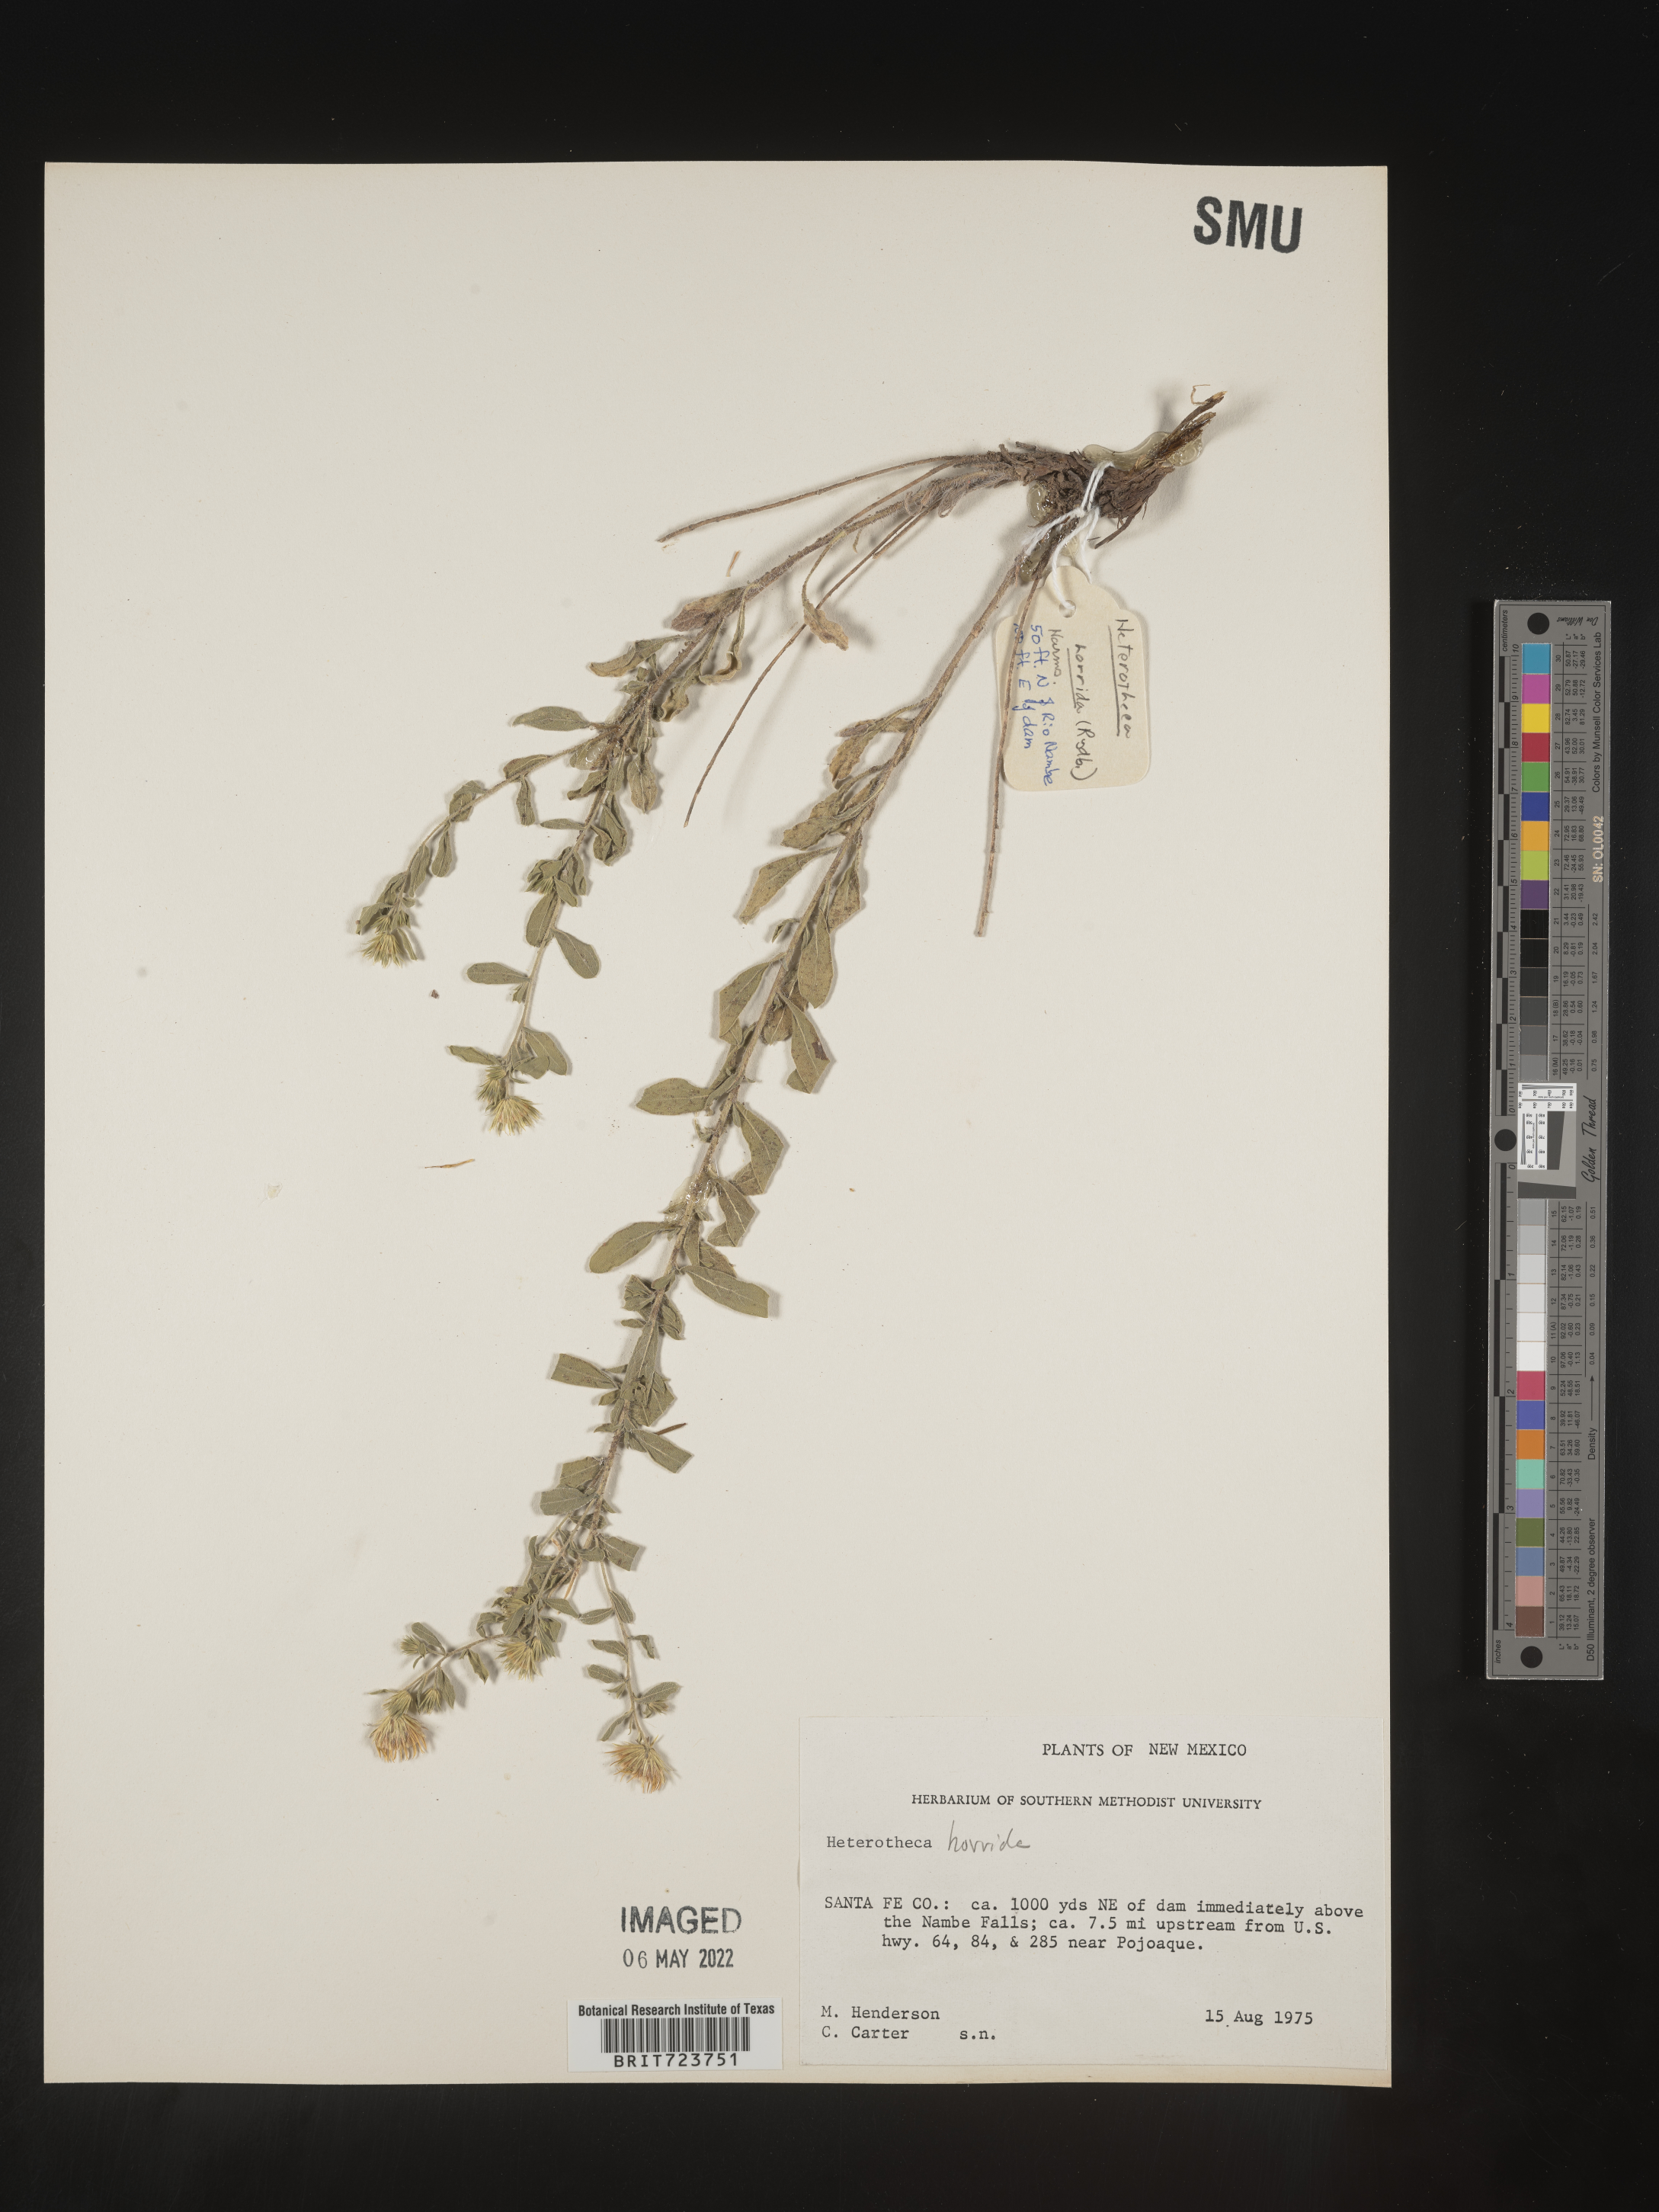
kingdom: Plantae
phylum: Tracheophyta
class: Magnoliopsida
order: Asterales
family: Asteraceae
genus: Heterotheca
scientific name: Heterotheca hirsutissima
